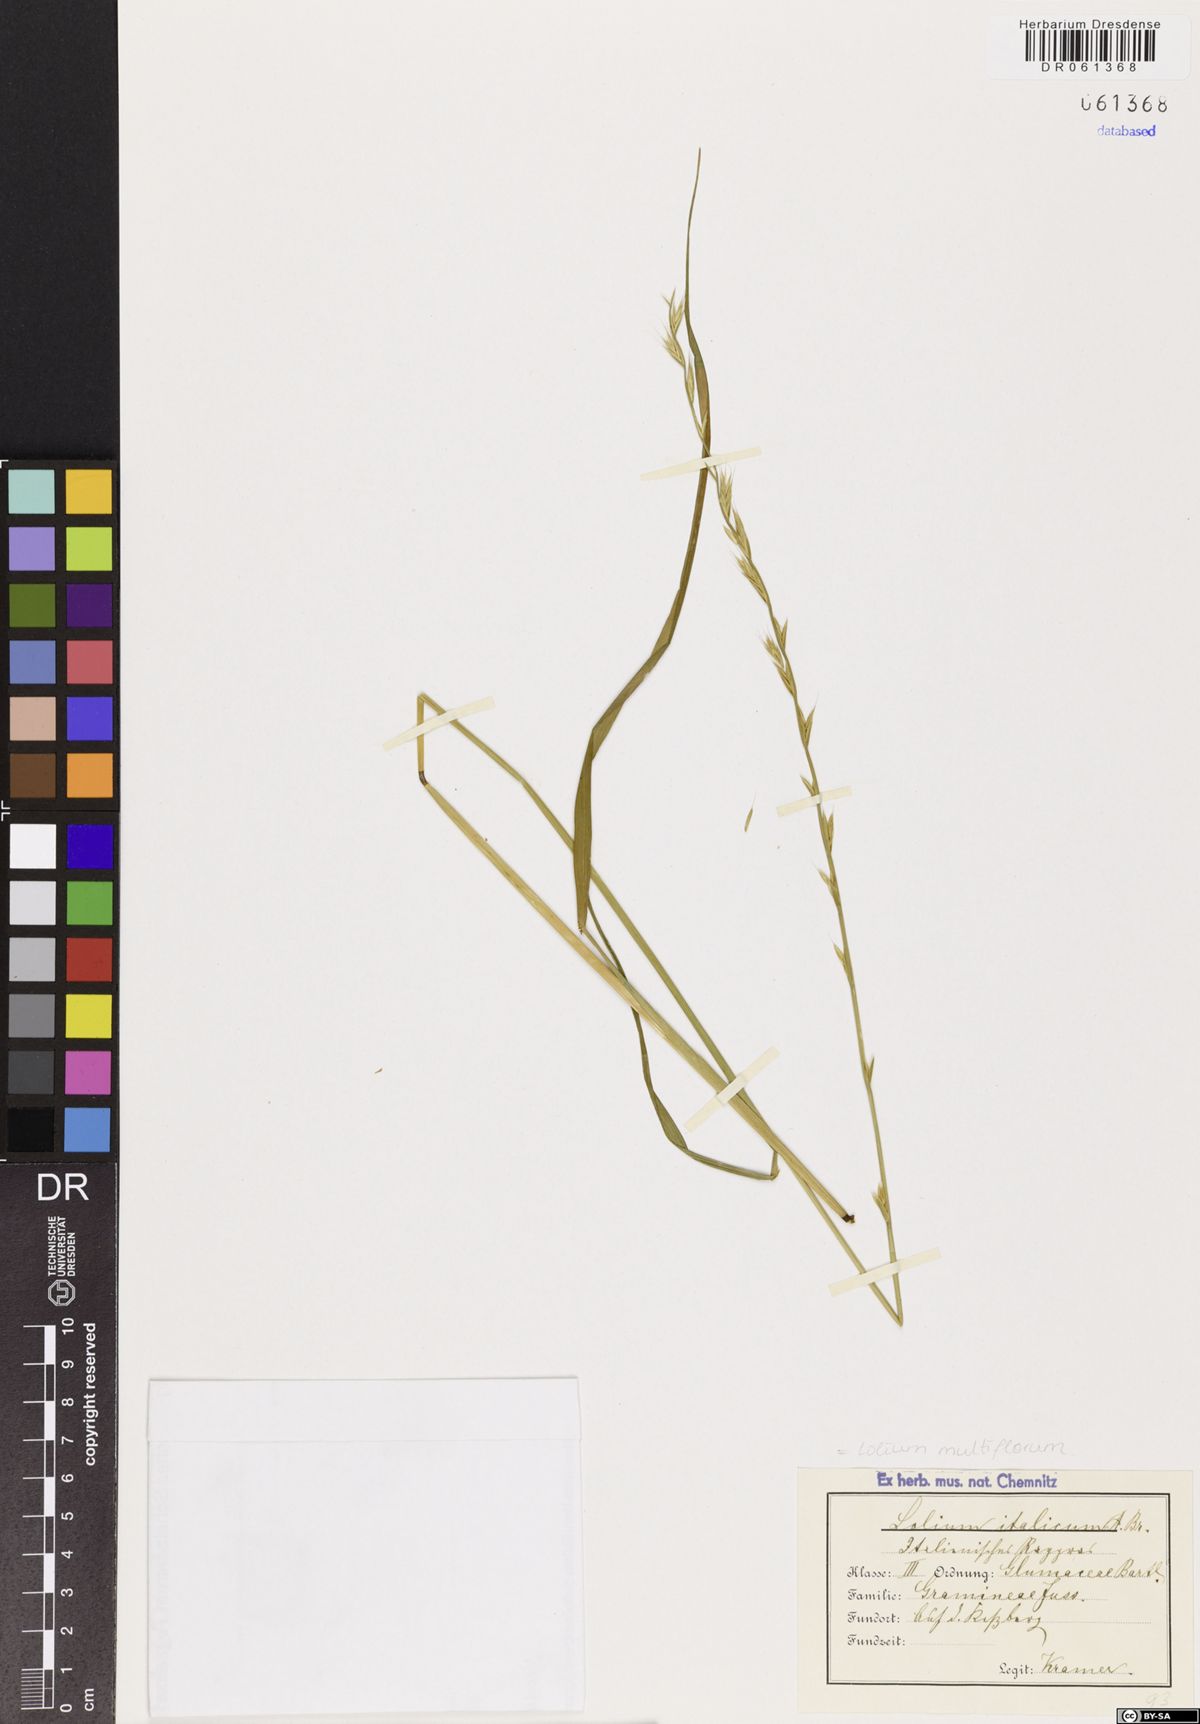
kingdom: Plantae
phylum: Tracheophyta
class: Liliopsida
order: Poales
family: Poaceae
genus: Lolium
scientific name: Lolium multiflorum
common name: Annual ryegrass
